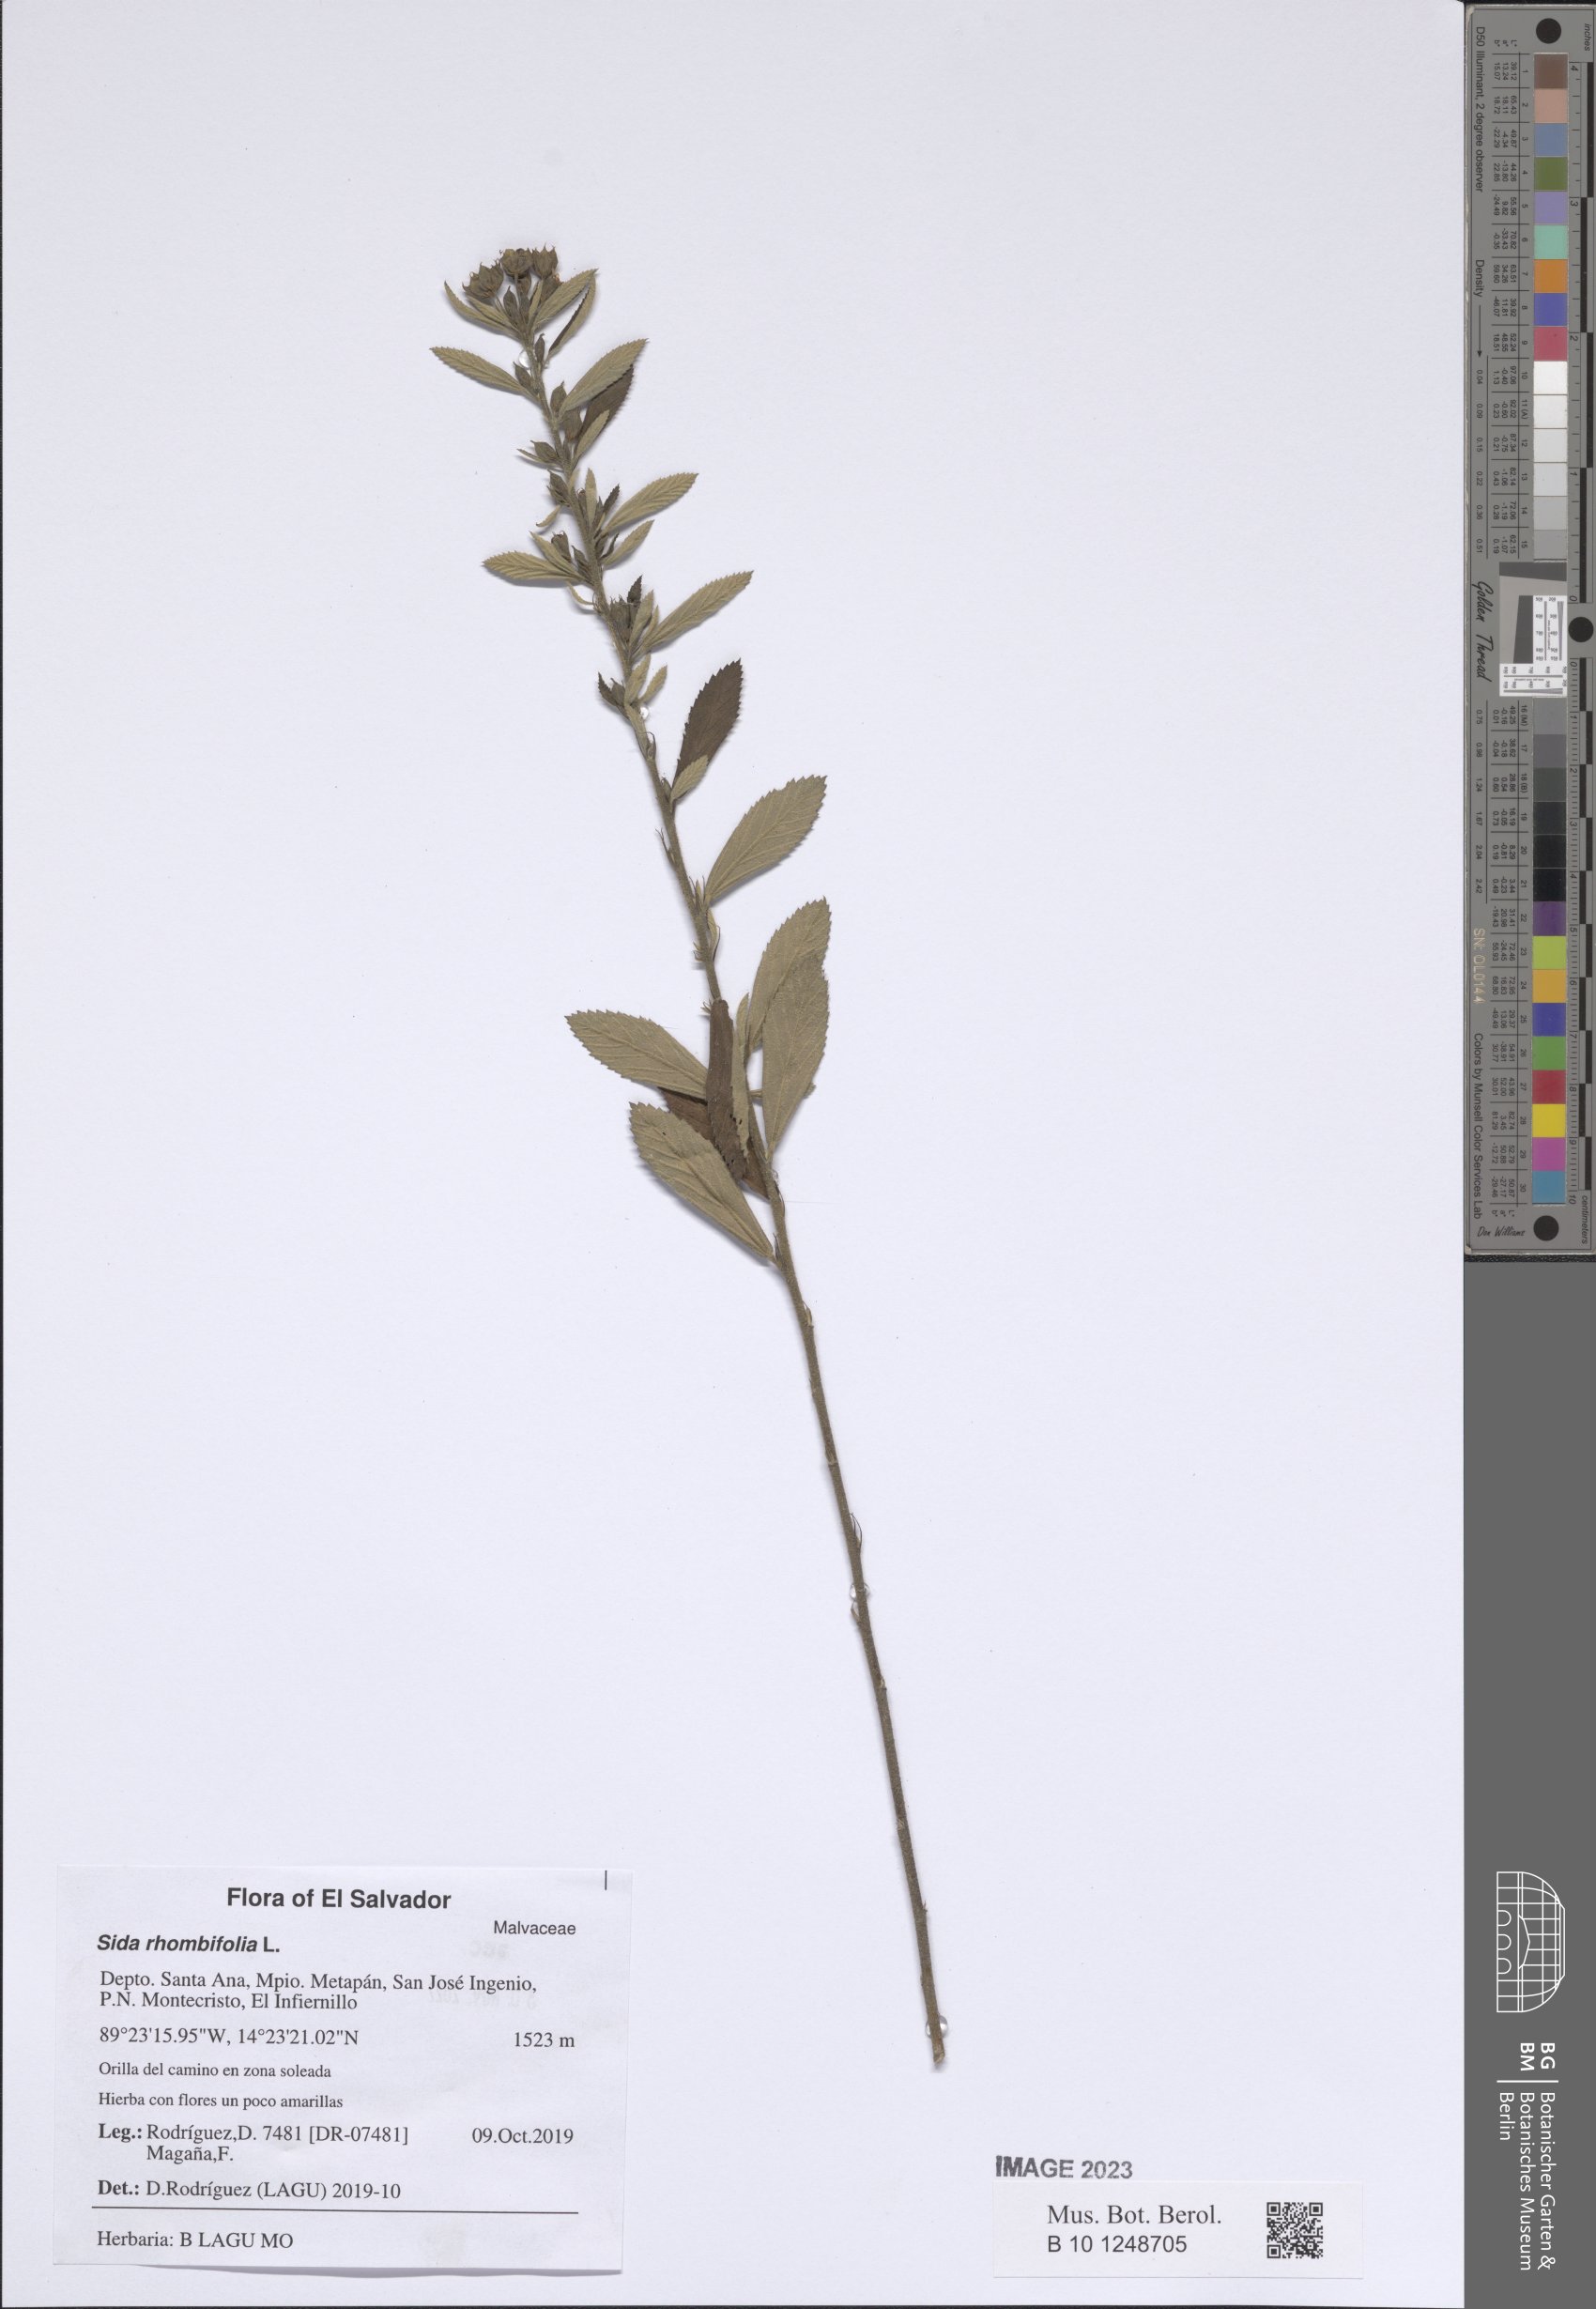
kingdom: Plantae
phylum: Tracheophyta
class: Magnoliopsida
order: Malvales
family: Malvaceae
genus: Sida
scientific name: Sida rhombifolia
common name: Queensland-hemp
